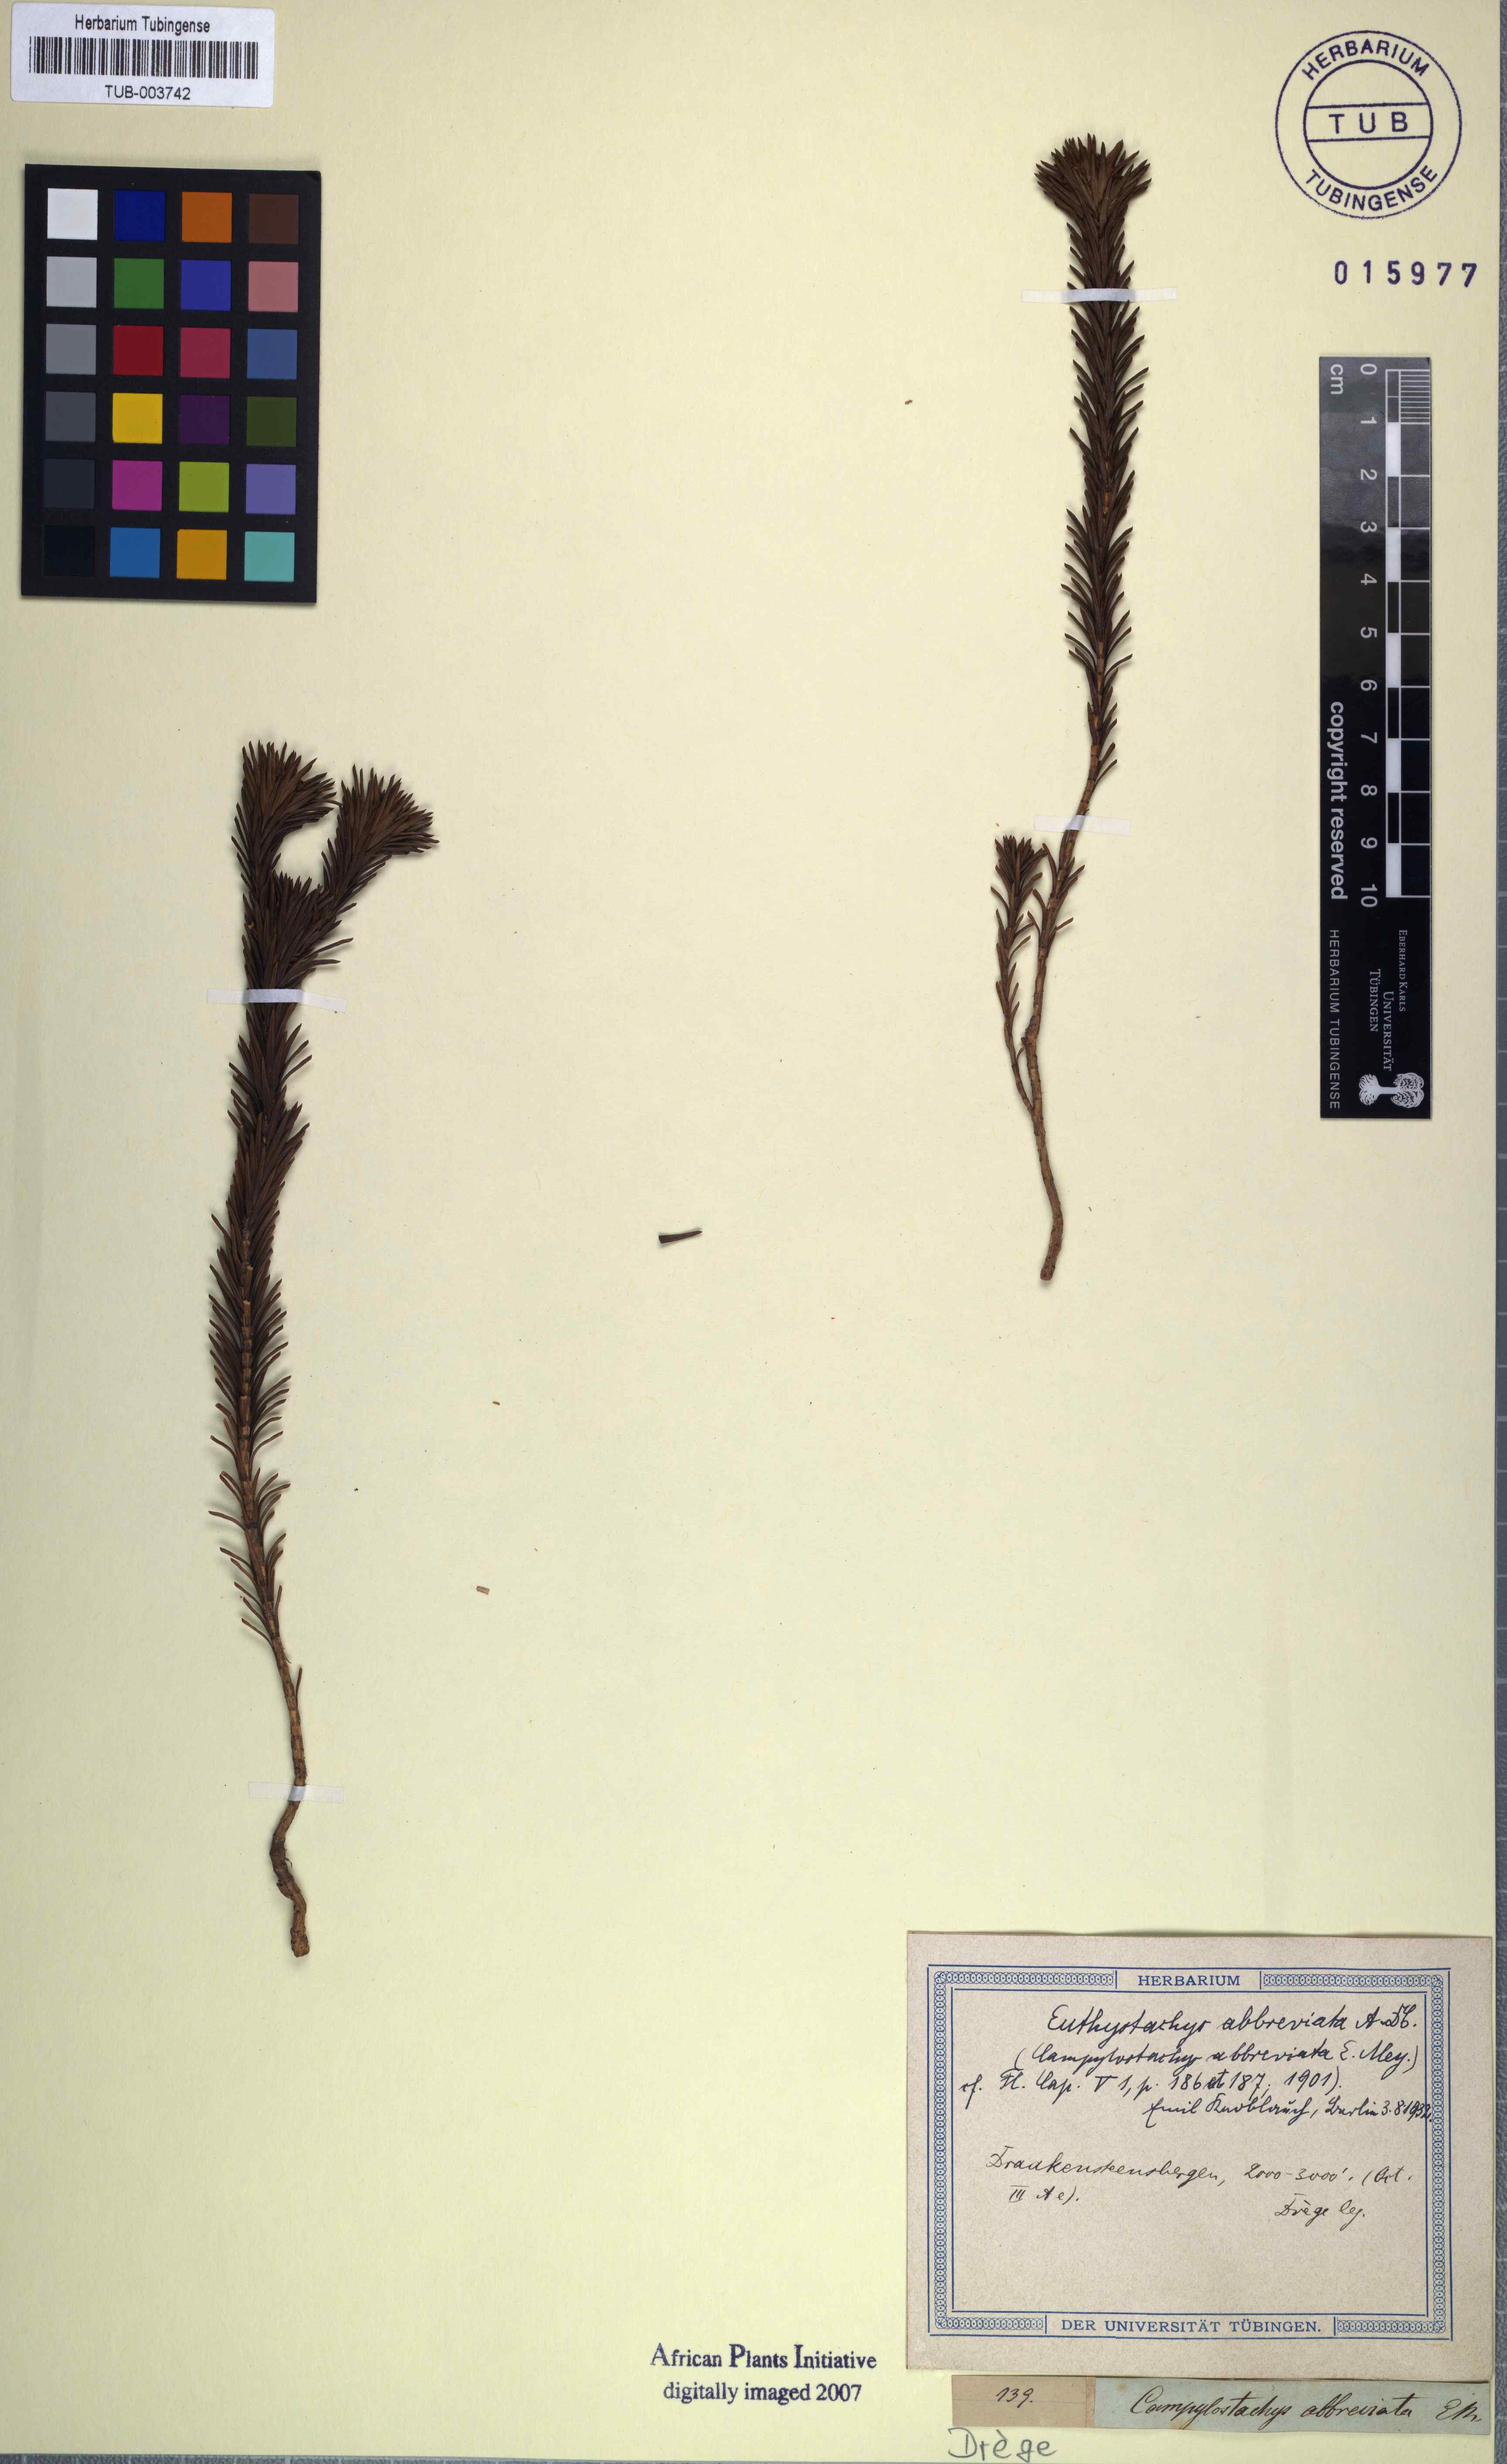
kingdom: Plantae
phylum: Tracheophyta
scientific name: Tracheophyta
